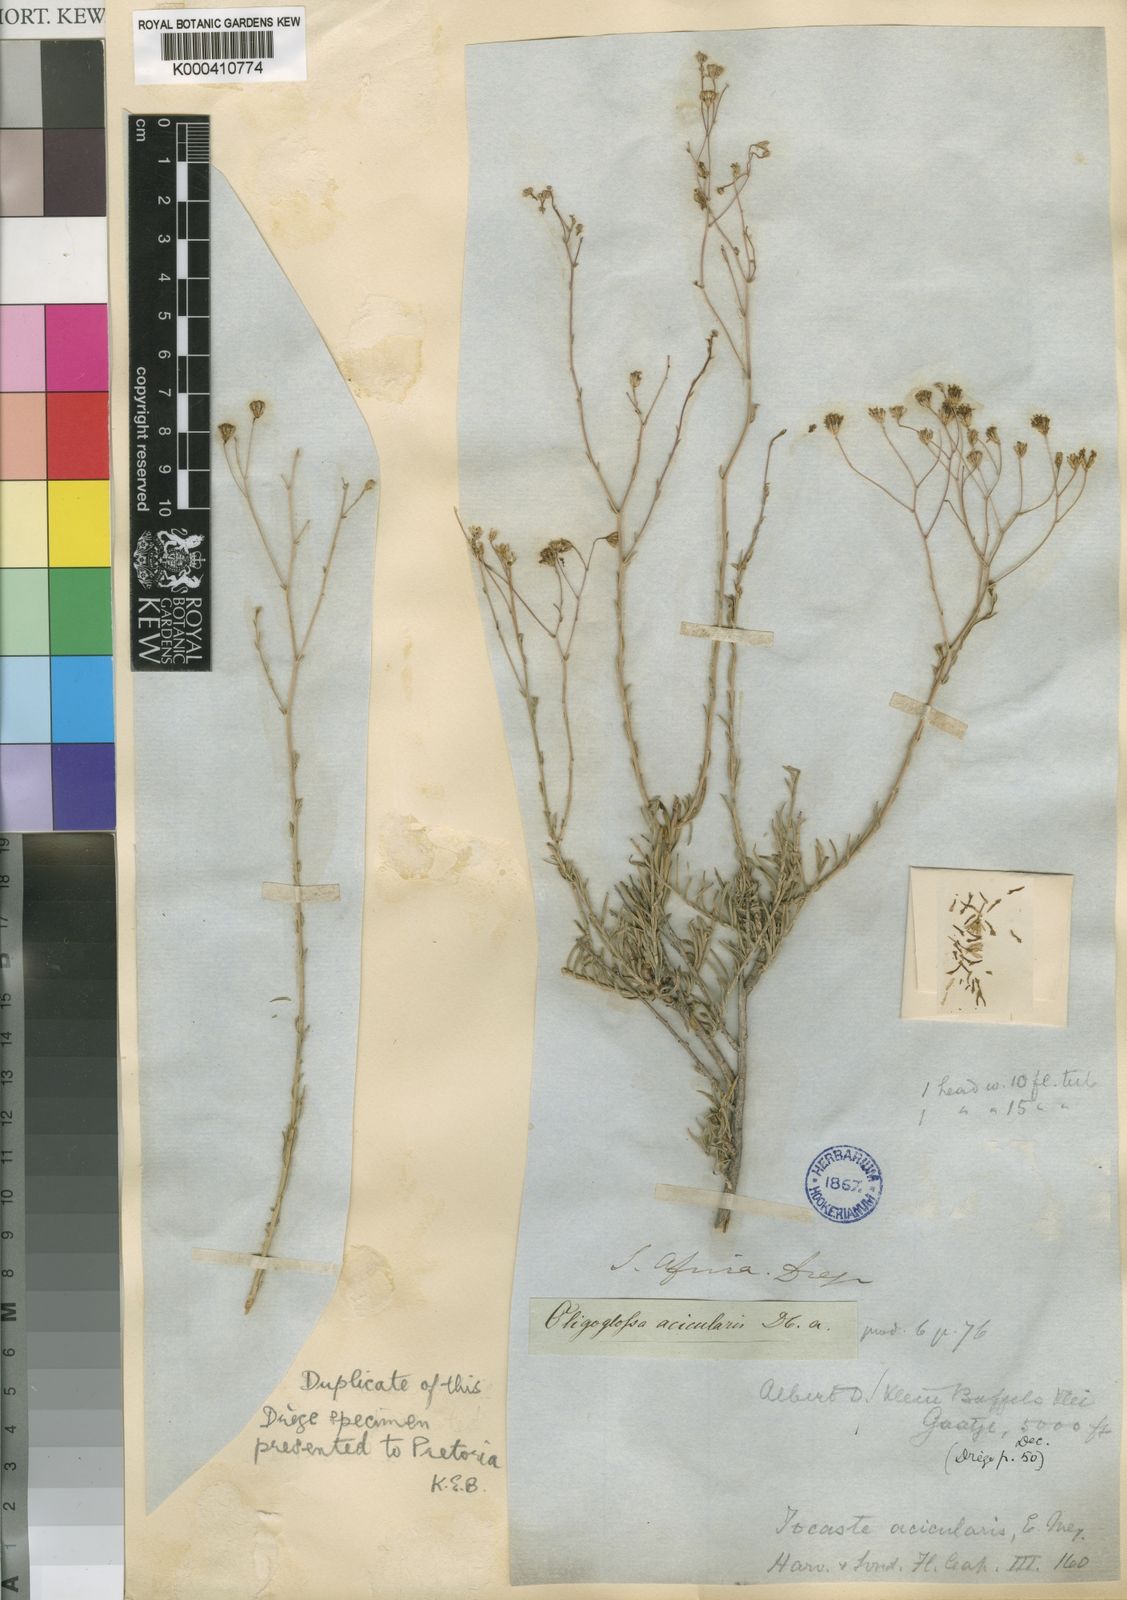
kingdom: Plantae
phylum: Tracheophyta
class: Magnoliopsida
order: Asterales
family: Asteraceae
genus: Phymaspermum
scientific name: Phymaspermum
